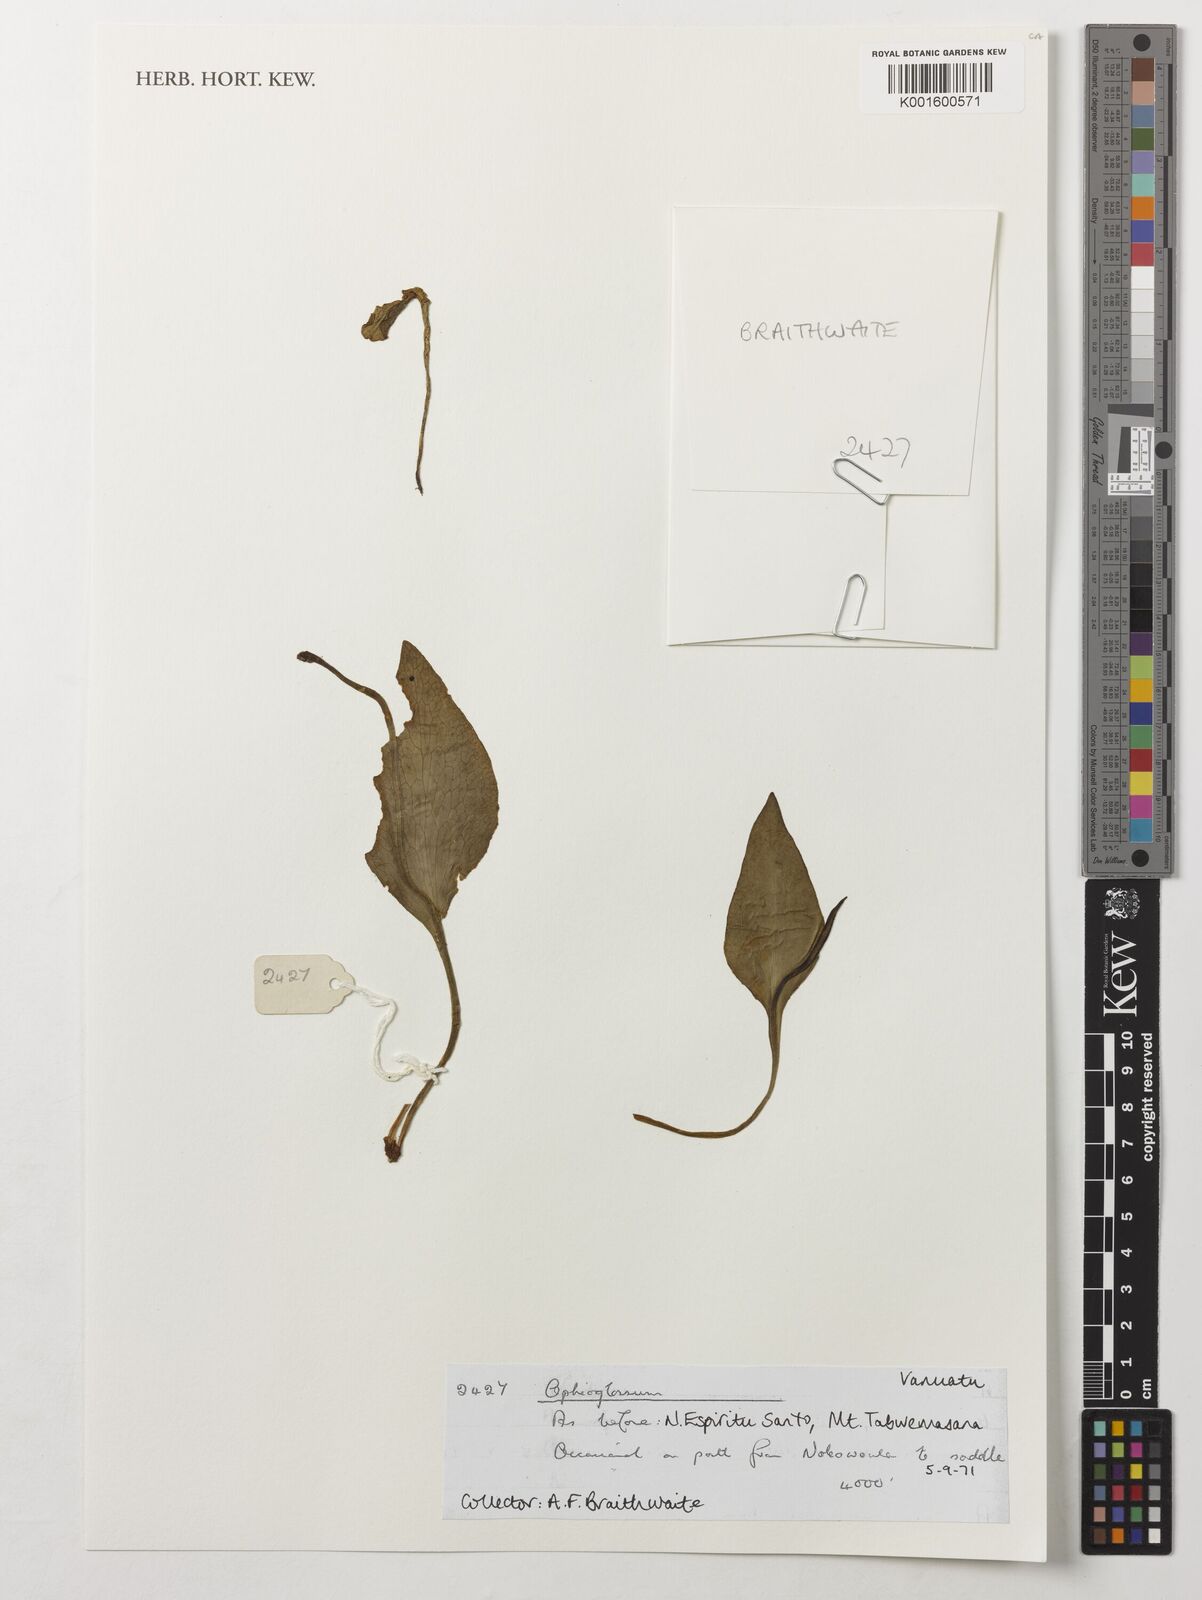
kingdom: Plantae
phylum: Tracheophyta
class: Polypodiopsida
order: Ophioglossales
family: Ophioglossaceae
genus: Ophioglossum
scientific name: Ophioglossum
